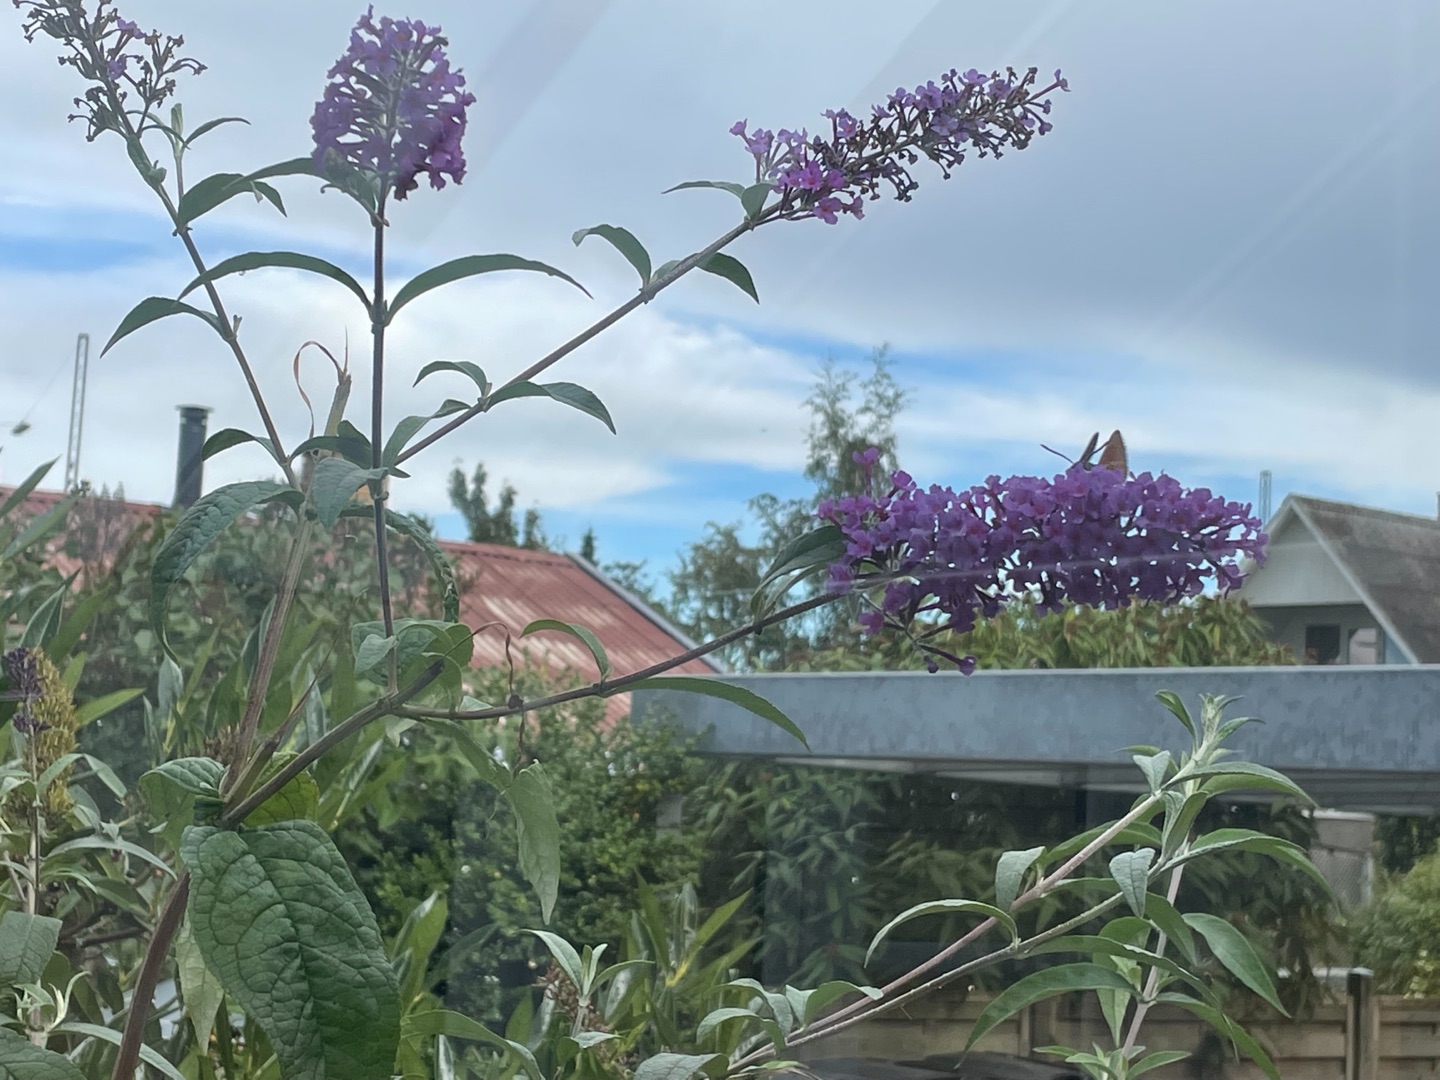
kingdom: Plantae
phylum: Tracheophyta
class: Magnoliopsida
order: Lamiales
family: Scrophulariaceae
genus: Buddleja
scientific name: Buddleja davidii
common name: Sommerfuglebusk
